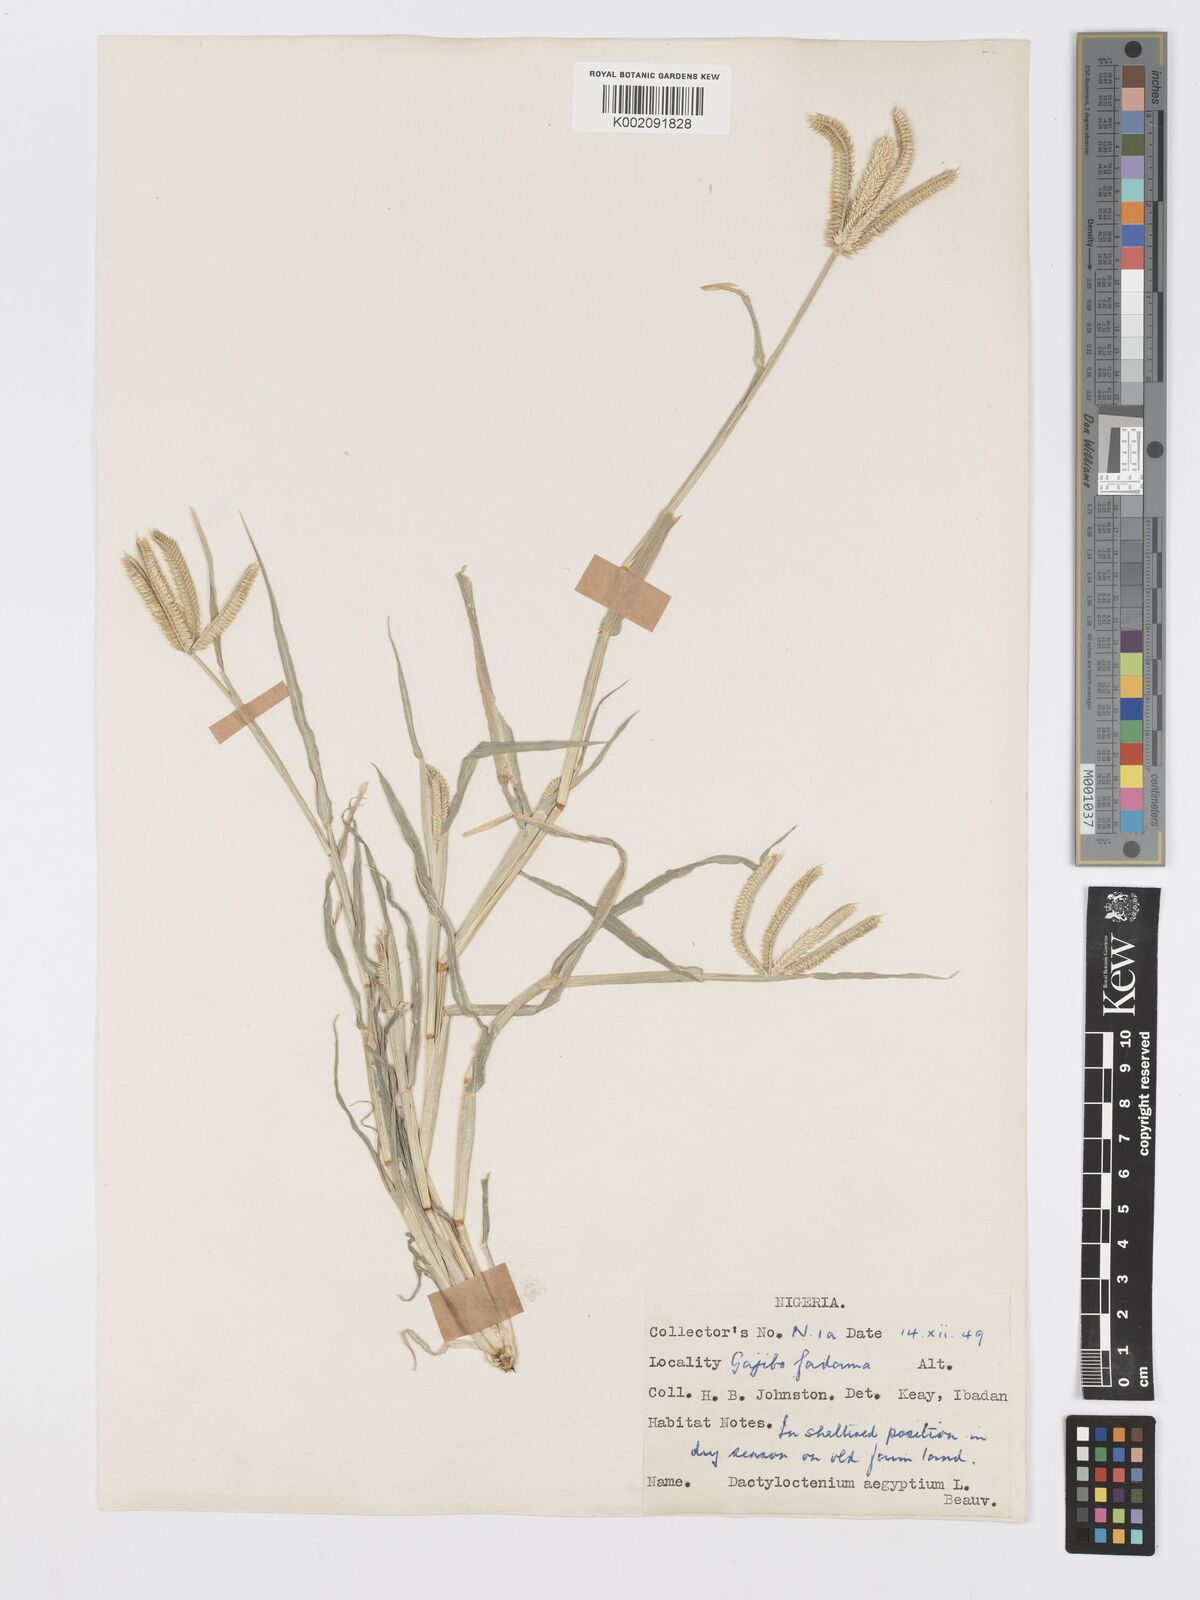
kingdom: Plantae
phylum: Tracheophyta
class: Liliopsida
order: Poales
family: Poaceae
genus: Dactyloctenium
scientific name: Dactyloctenium aegyptium
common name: Egyptian grass
